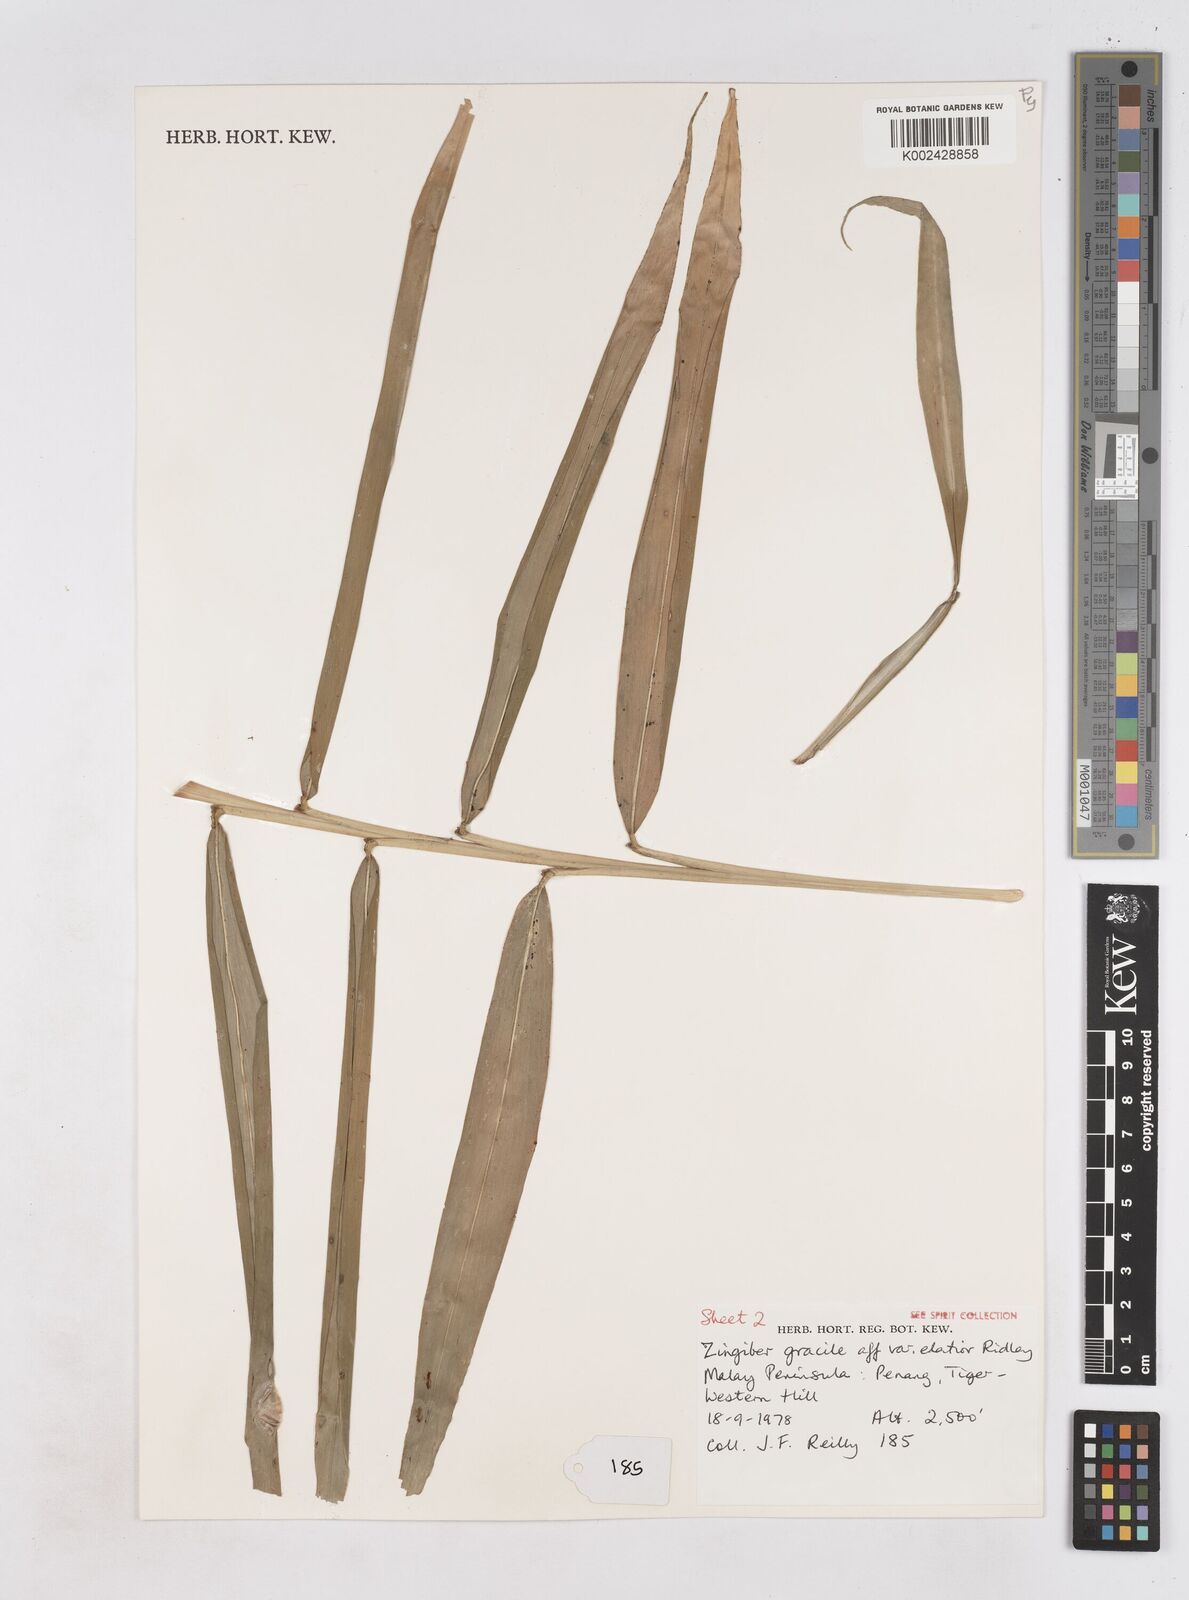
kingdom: Plantae
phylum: Tracheophyta
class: Liliopsida
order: Zingiberales
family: Zingiberaceae
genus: Zingiber
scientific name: Zingiber gracile
